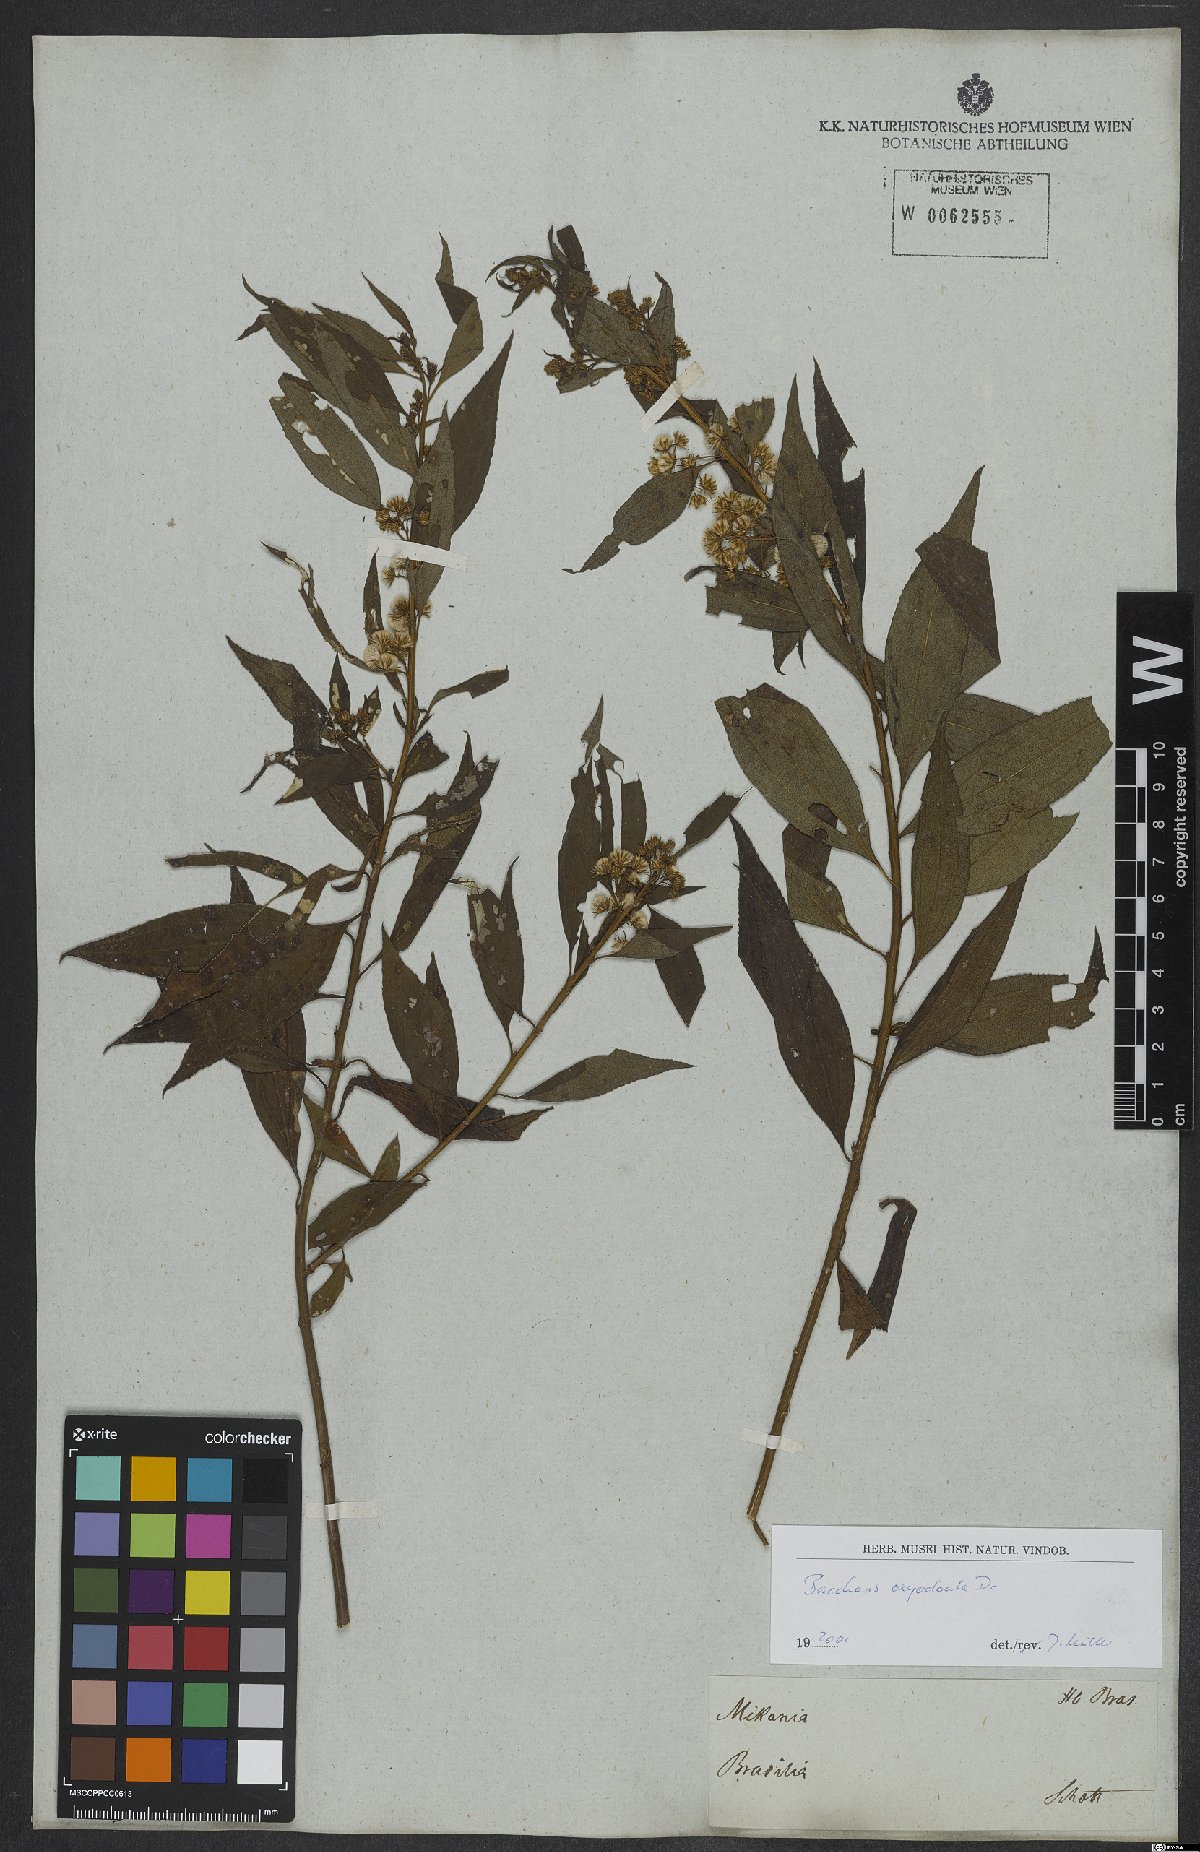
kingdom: Plantae
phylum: Tracheophyta
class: Magnoliopsida
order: Asterales
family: Asteraceae
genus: Baccharis
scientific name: Baccharis oxyodonta
